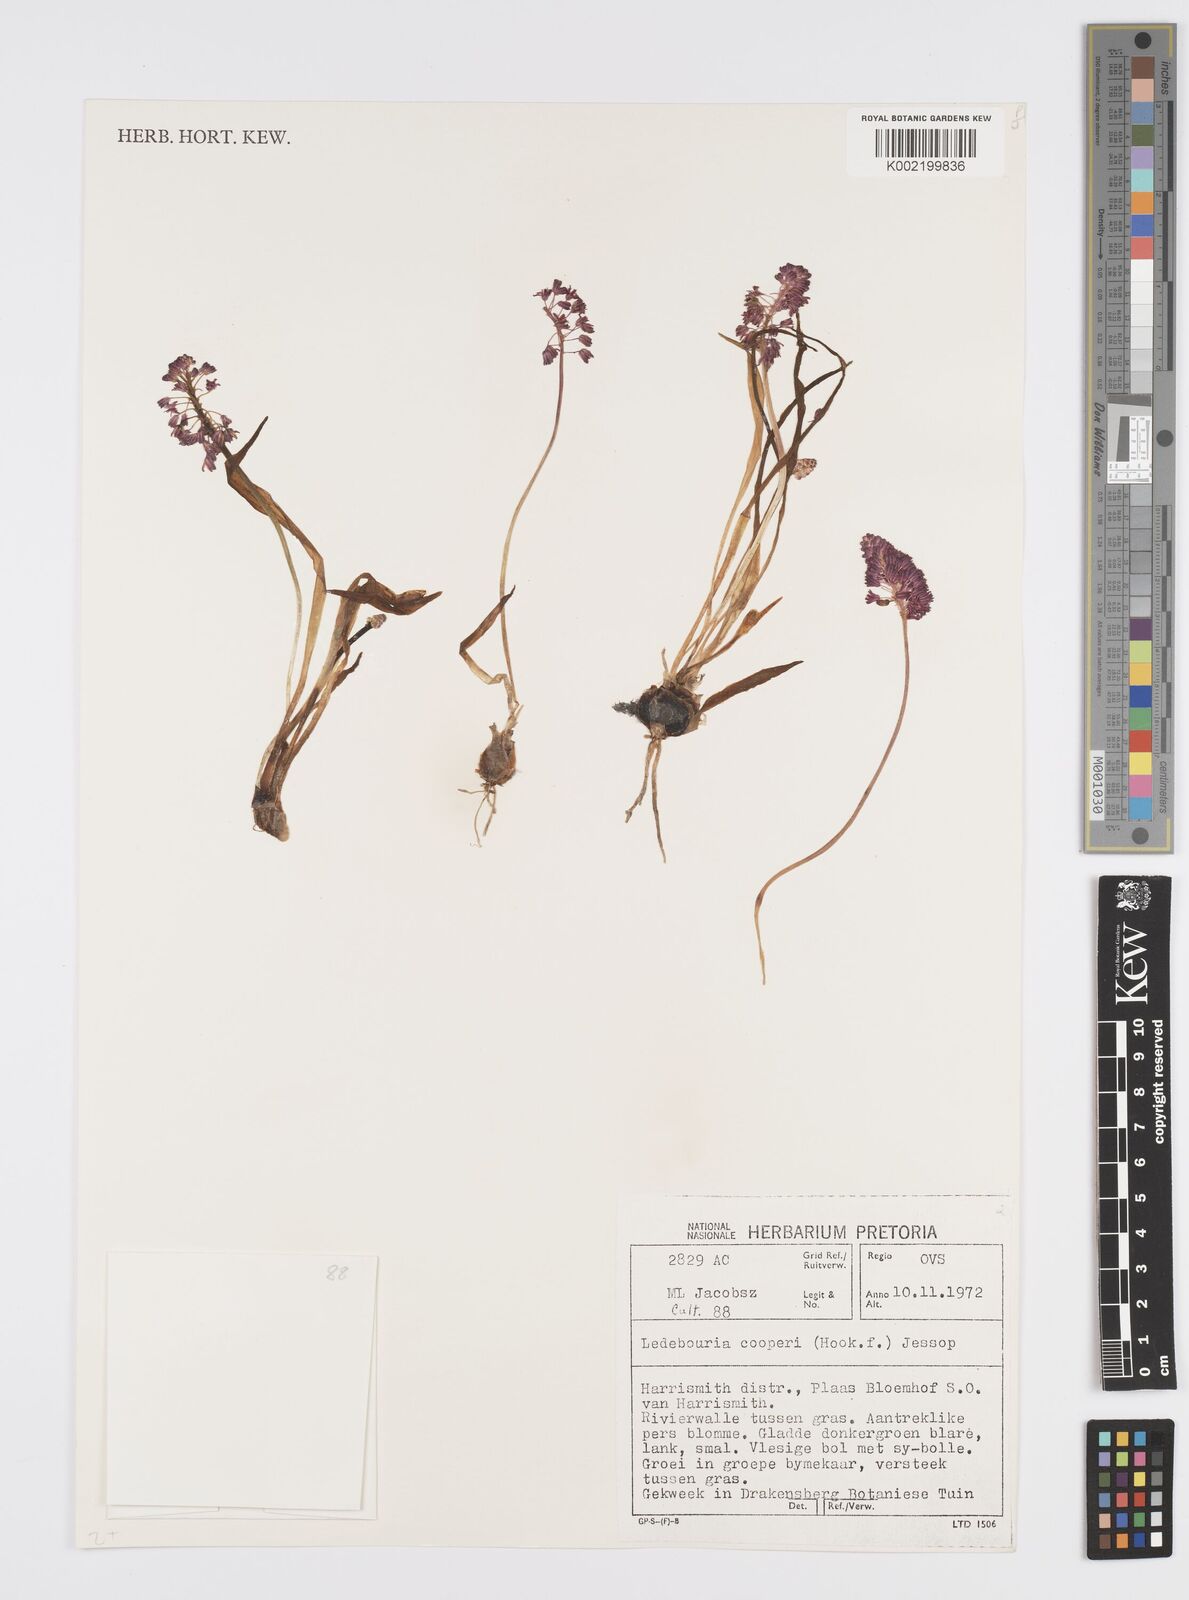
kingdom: Plantae
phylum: Tracheophyta
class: Liliopsida
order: Asparagales
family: Asparagaceae
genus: Ledebouria
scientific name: Ledebouria cooperi
